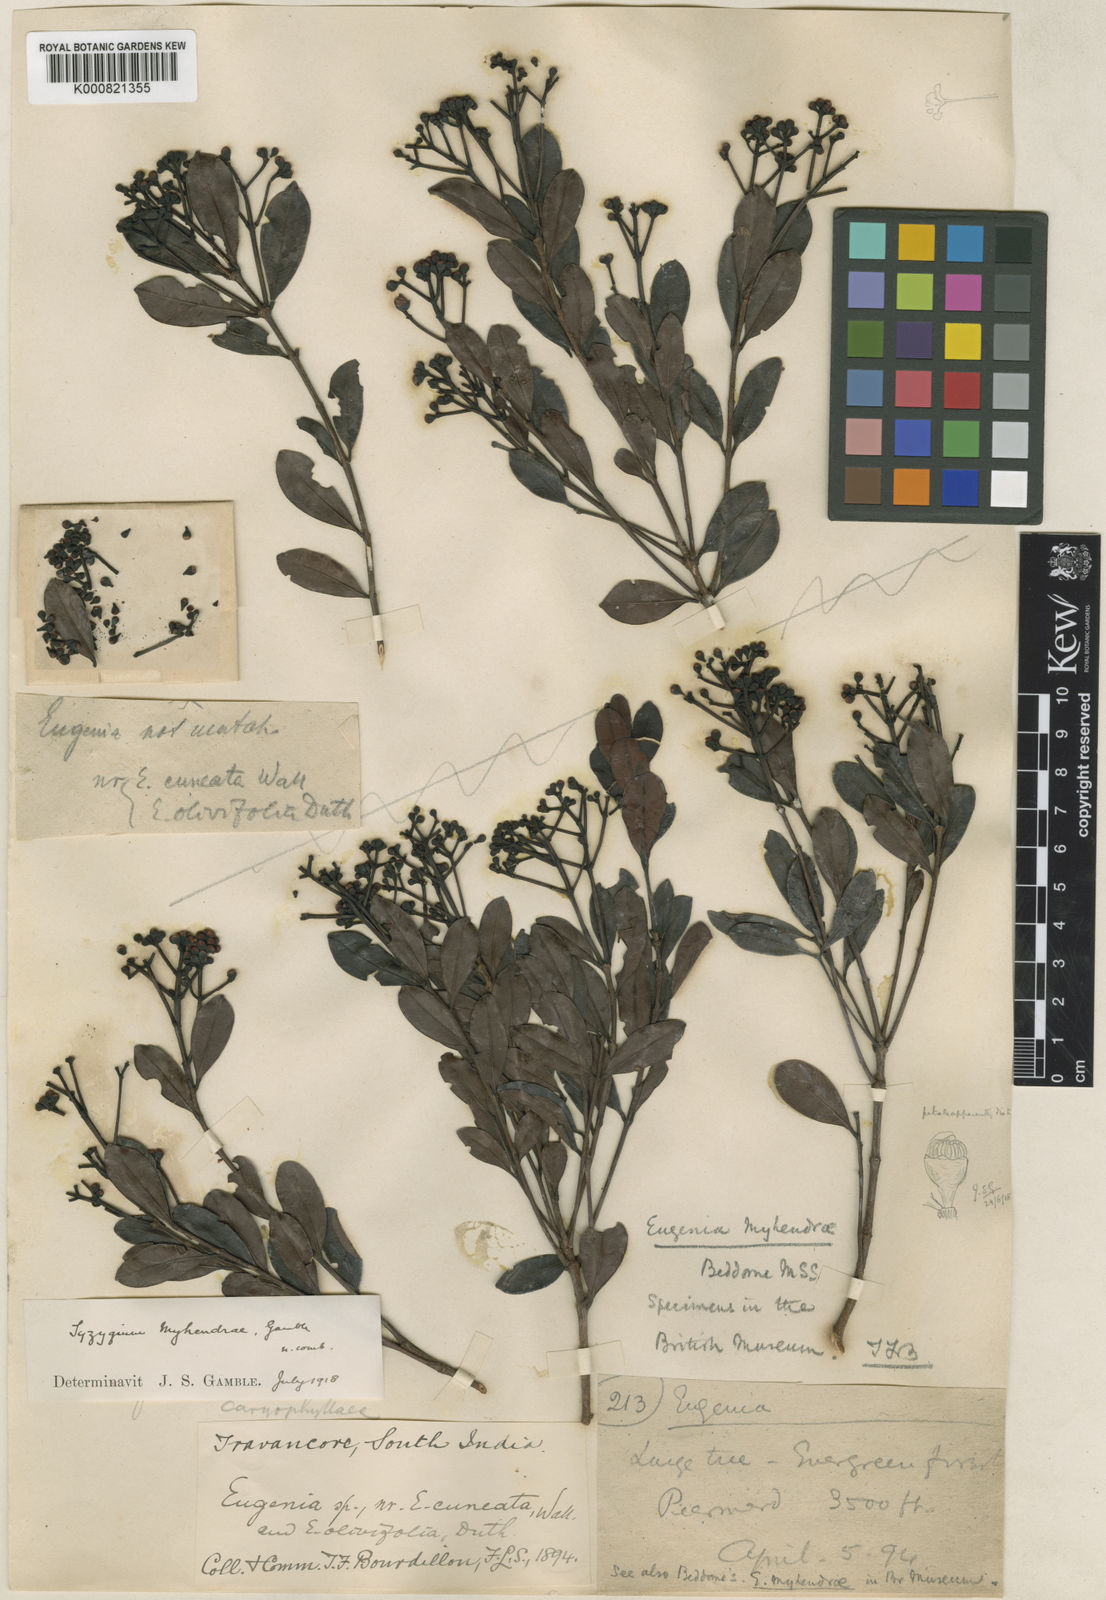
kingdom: Plantae
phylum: Tracheophyta
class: Magnoliopsida
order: Myrtales
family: Myrtaceae
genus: Syzygium
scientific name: Syzygium spathulatum
